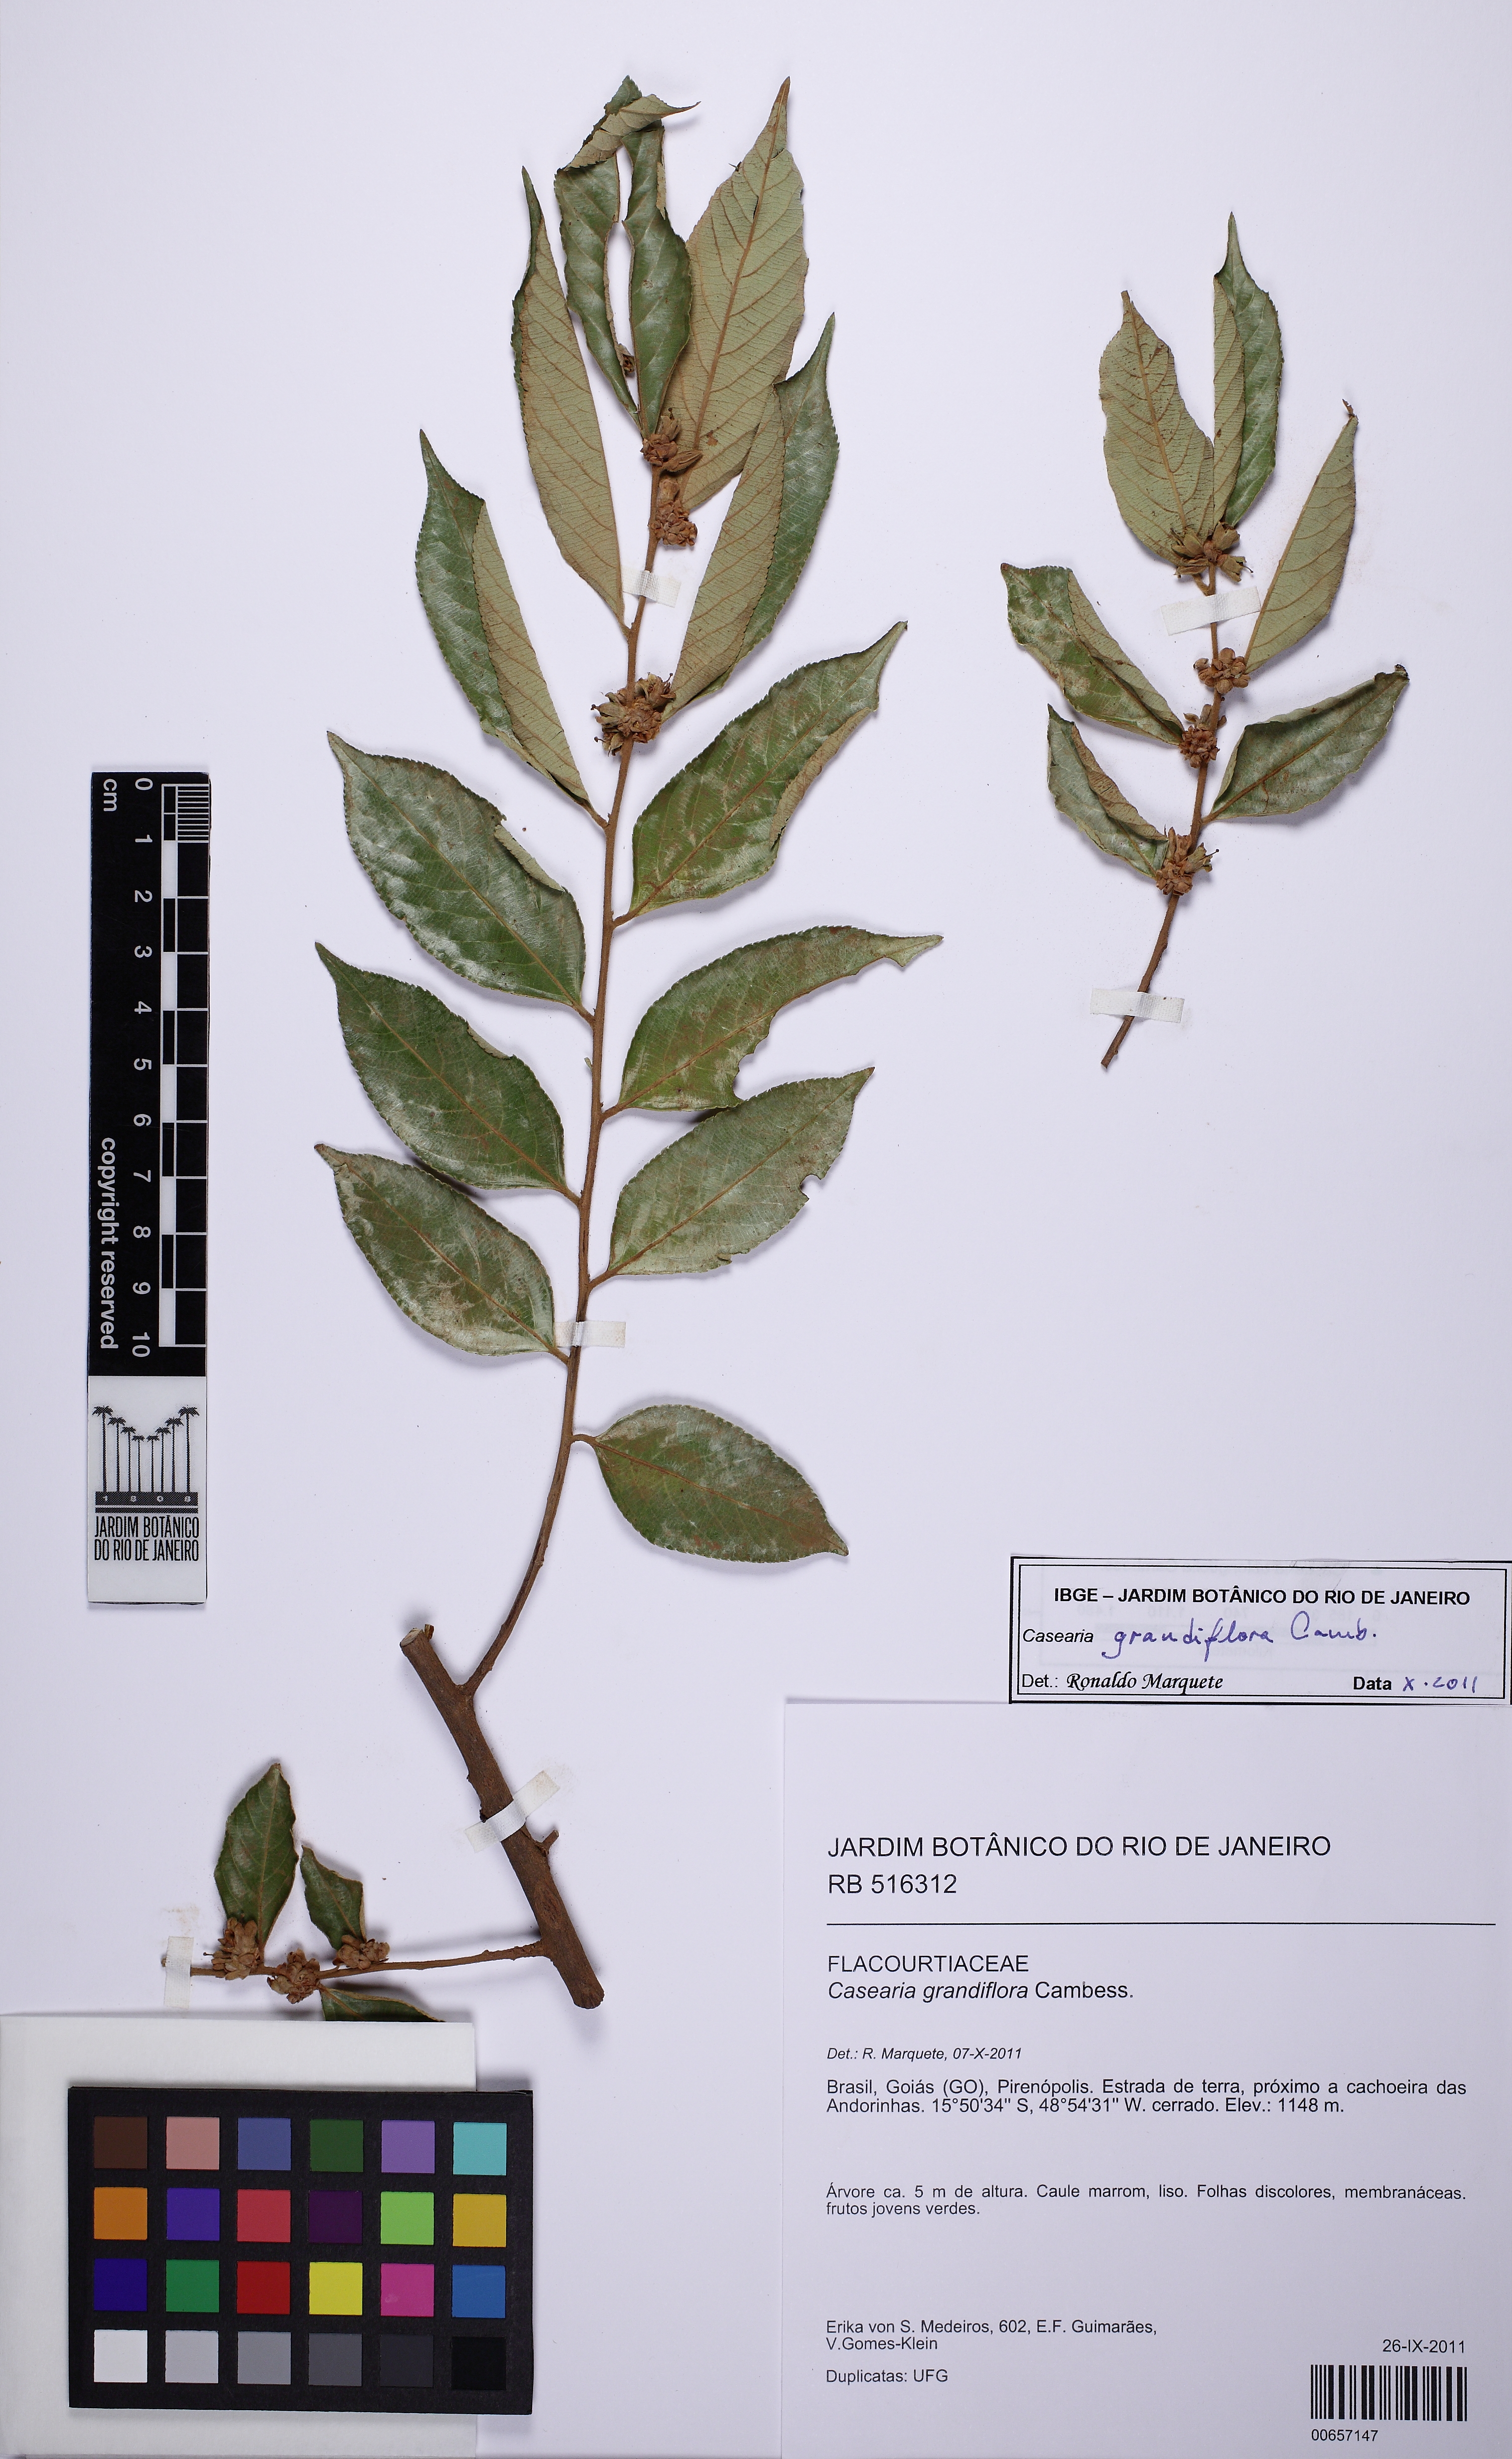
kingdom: Plantae
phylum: Tracheophyta
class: Magnoliopsida
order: Malpighiales
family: Salicaceae
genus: Casearia
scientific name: Casearia grandiflora
